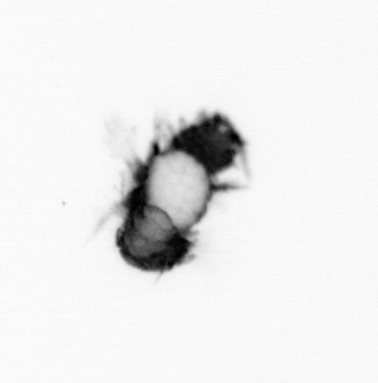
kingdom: Animalia
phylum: Annelida
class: Polychaeta
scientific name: Polychaeta
